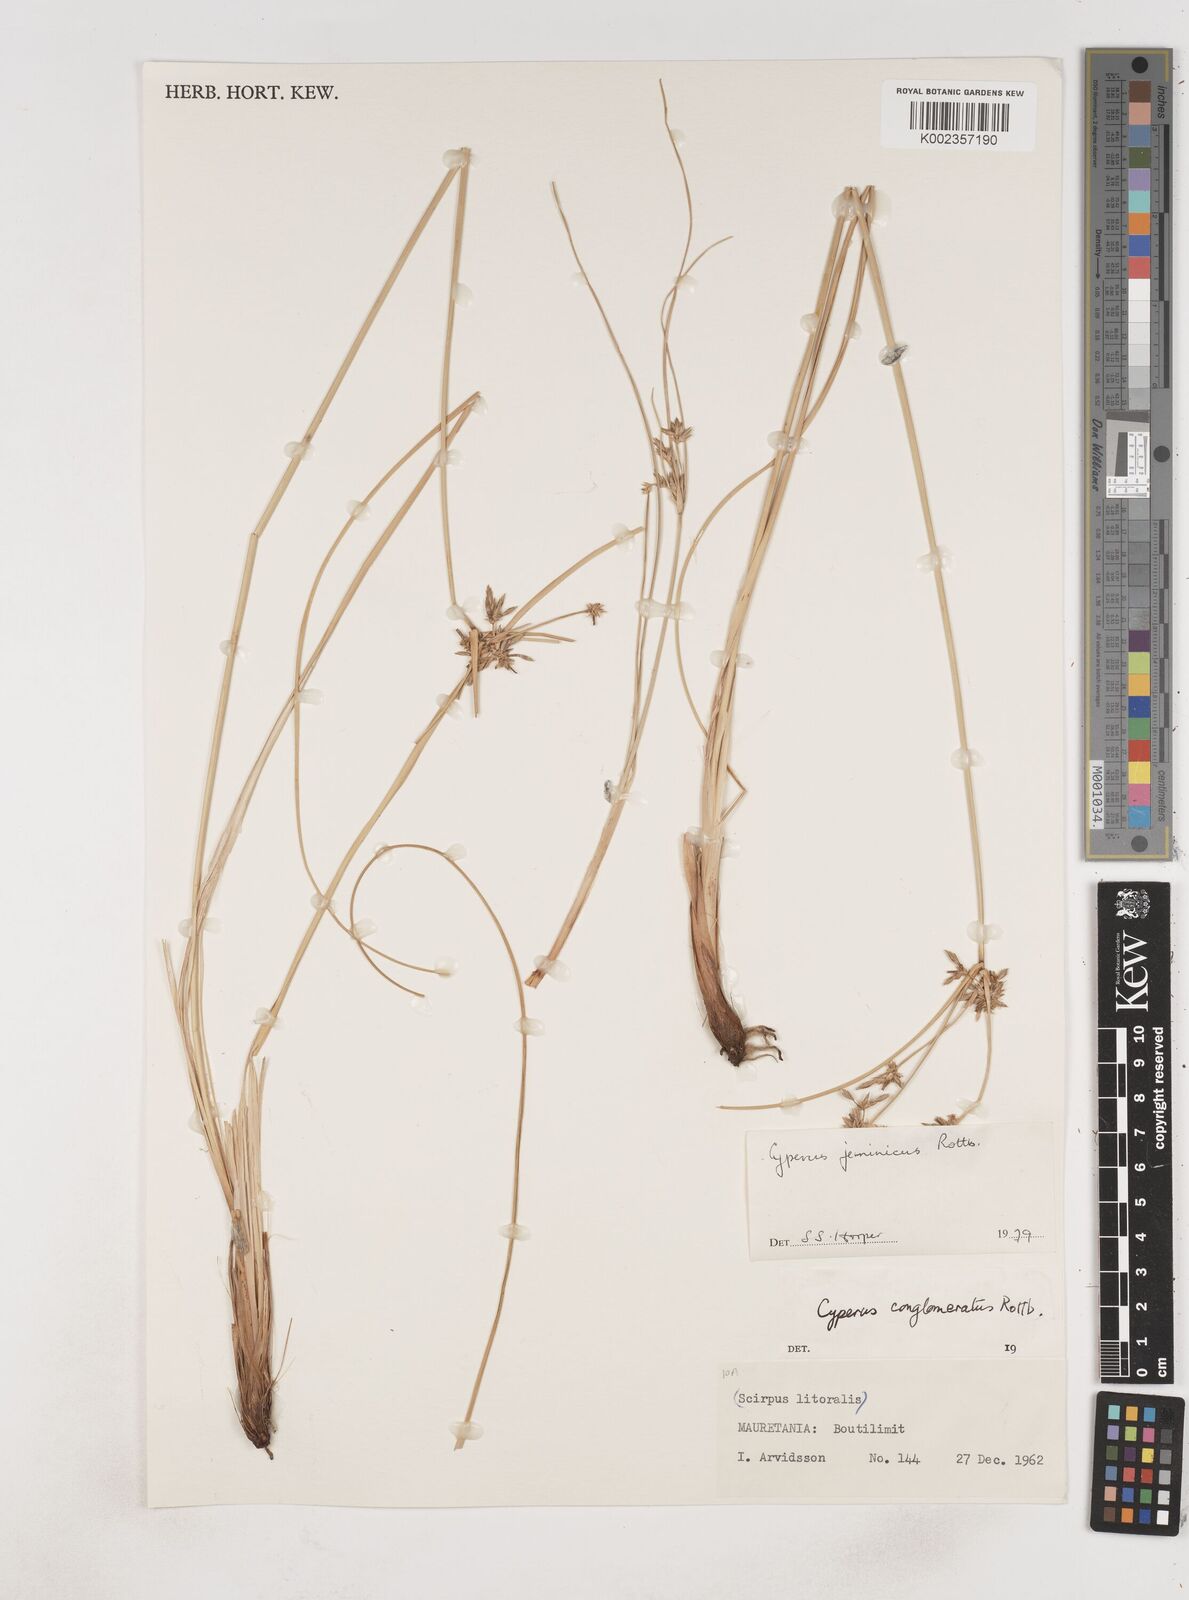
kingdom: Plantae
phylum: Tracheophyta
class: Liliopsida
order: Poales
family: Cyperaceae
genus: Cyperus
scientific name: Cyperus jeminicus
